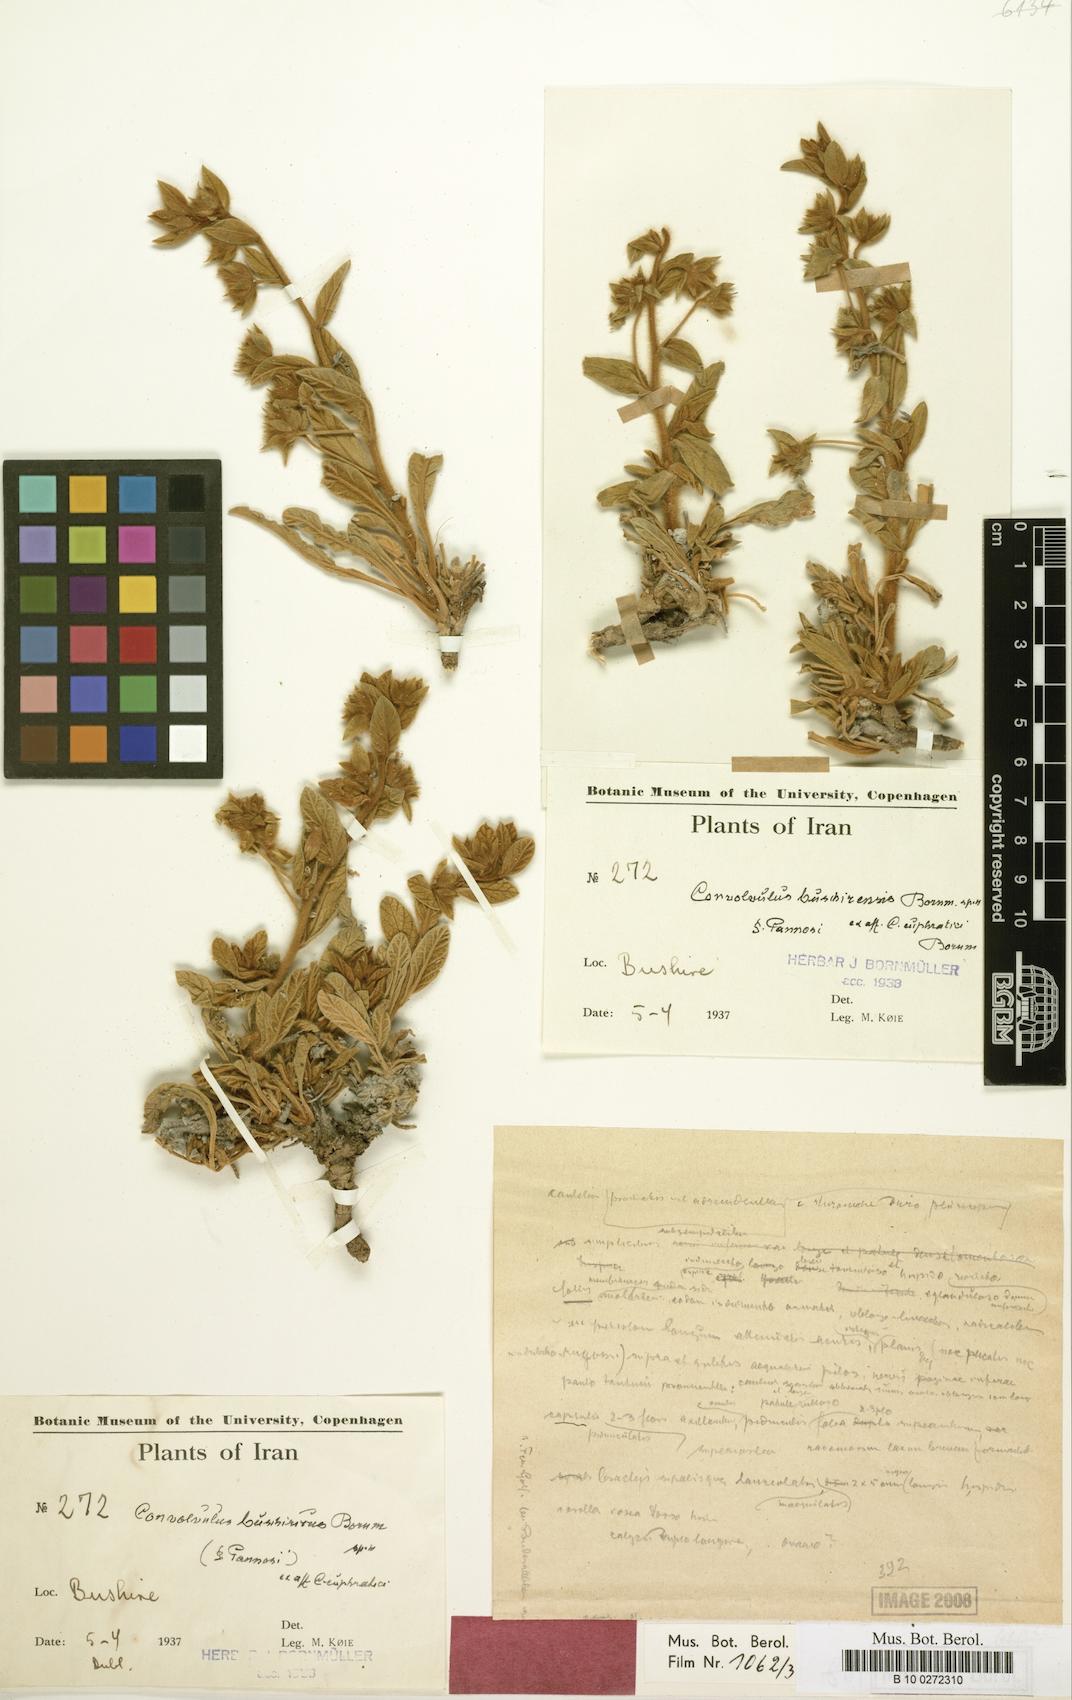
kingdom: Plantae
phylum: Tracheophyta
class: Magnoliopsida
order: Solanales
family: Convolvulaceae
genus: Convolvulus
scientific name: Convolvulus cephalopodus
